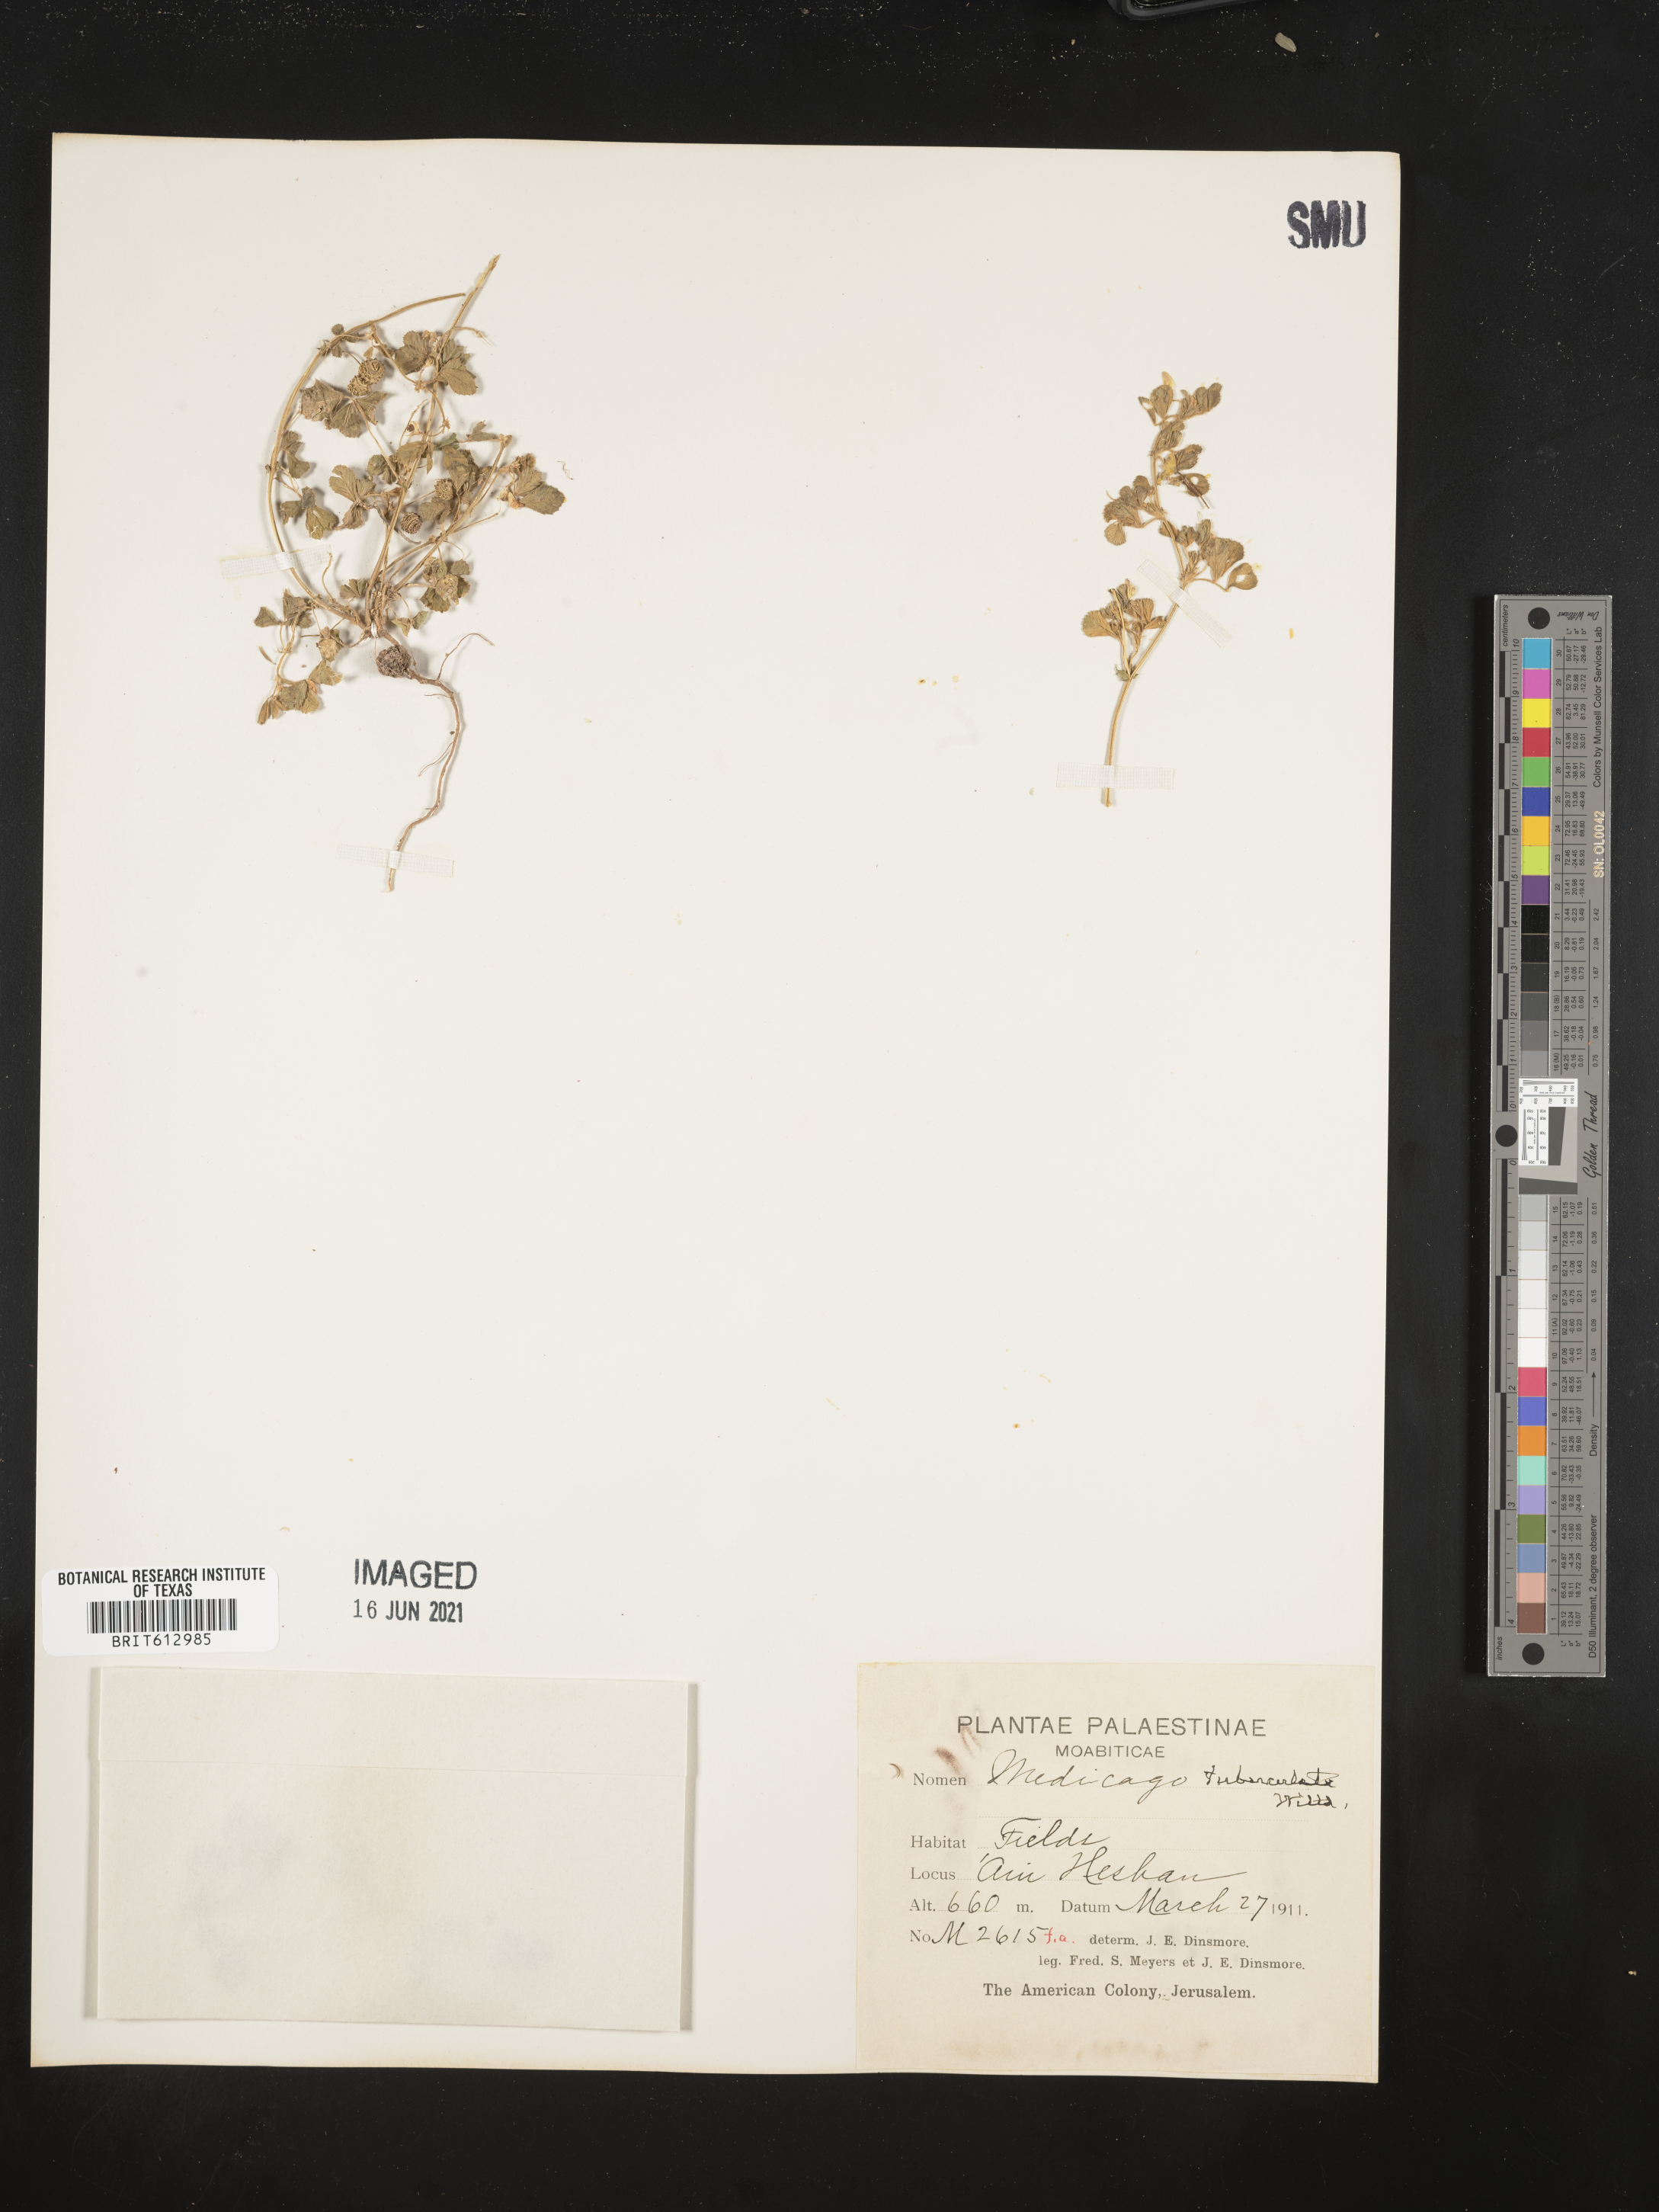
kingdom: Plantae
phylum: Tracheophyta
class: Magnoliopsida
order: Fabales
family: Fabaceae
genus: Medicago
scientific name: Medicago turbinata
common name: Southern medick
